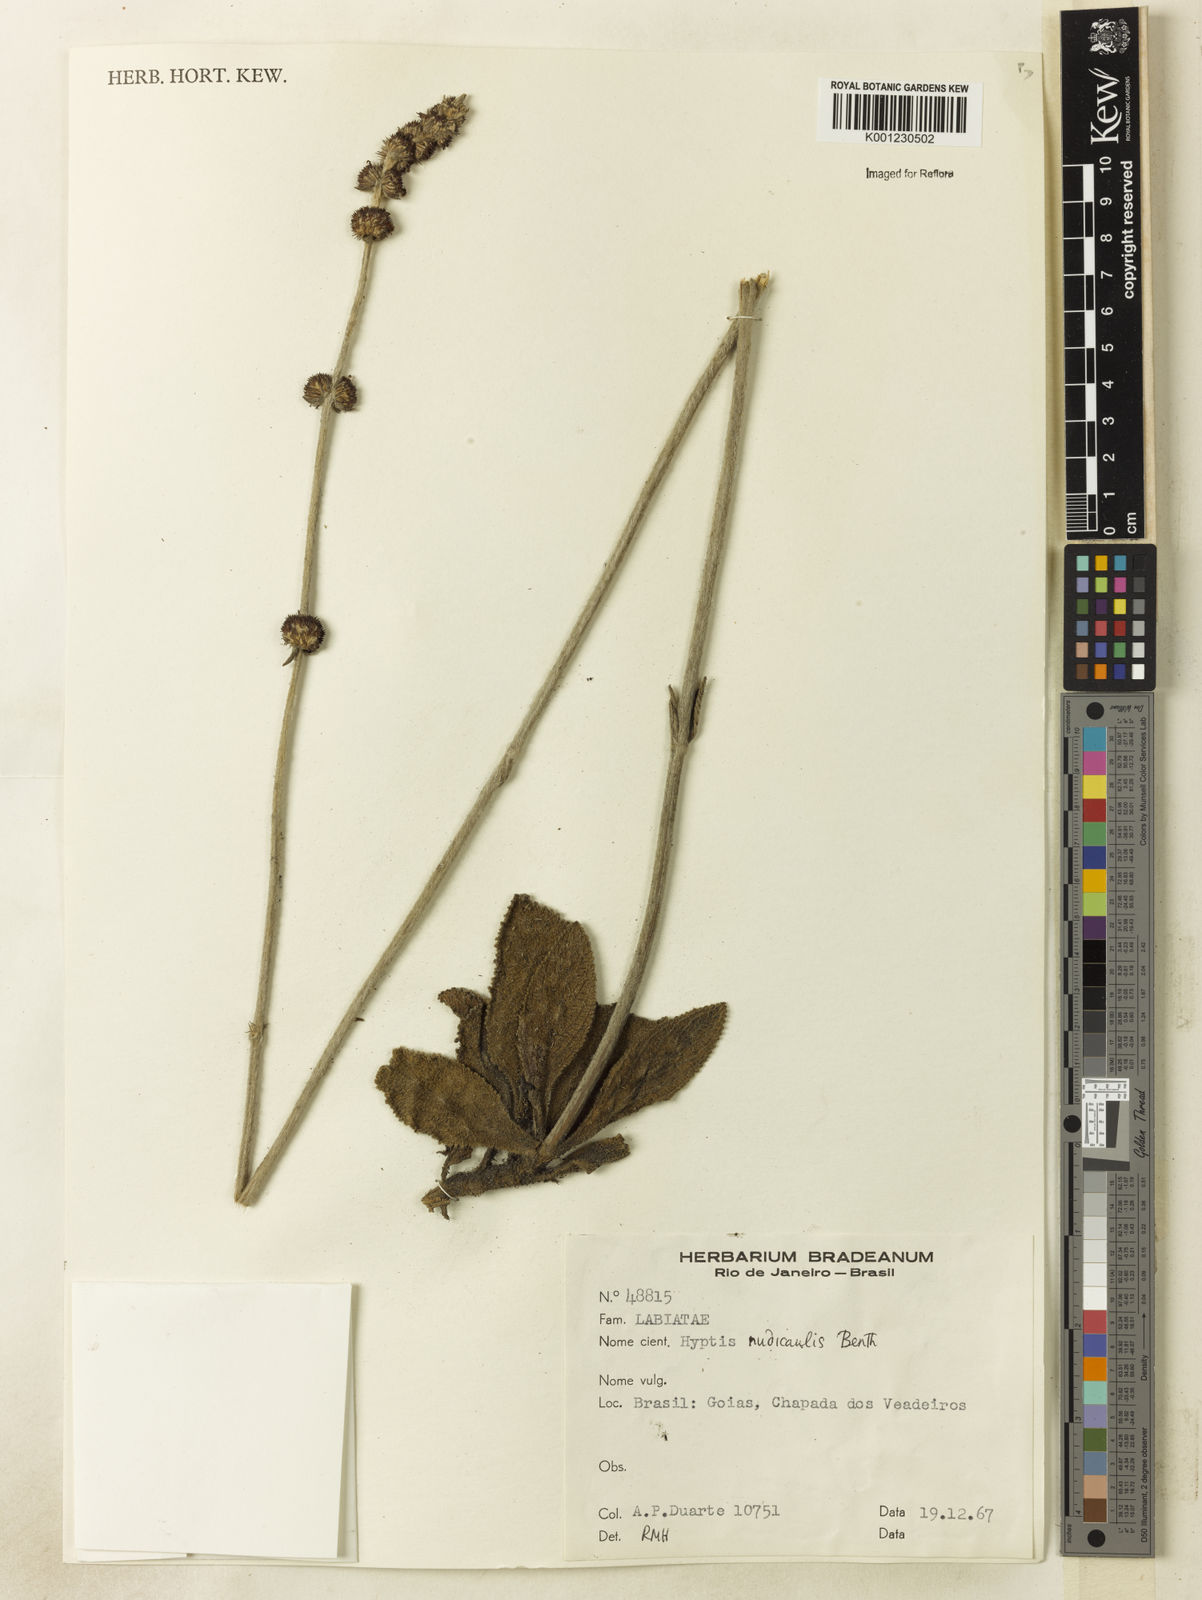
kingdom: Plantae
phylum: Tracheophyta
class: Magnoliopsida
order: Lamiales
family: Lamiaceae
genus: Hyptis
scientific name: Hyptis nudicaulis
